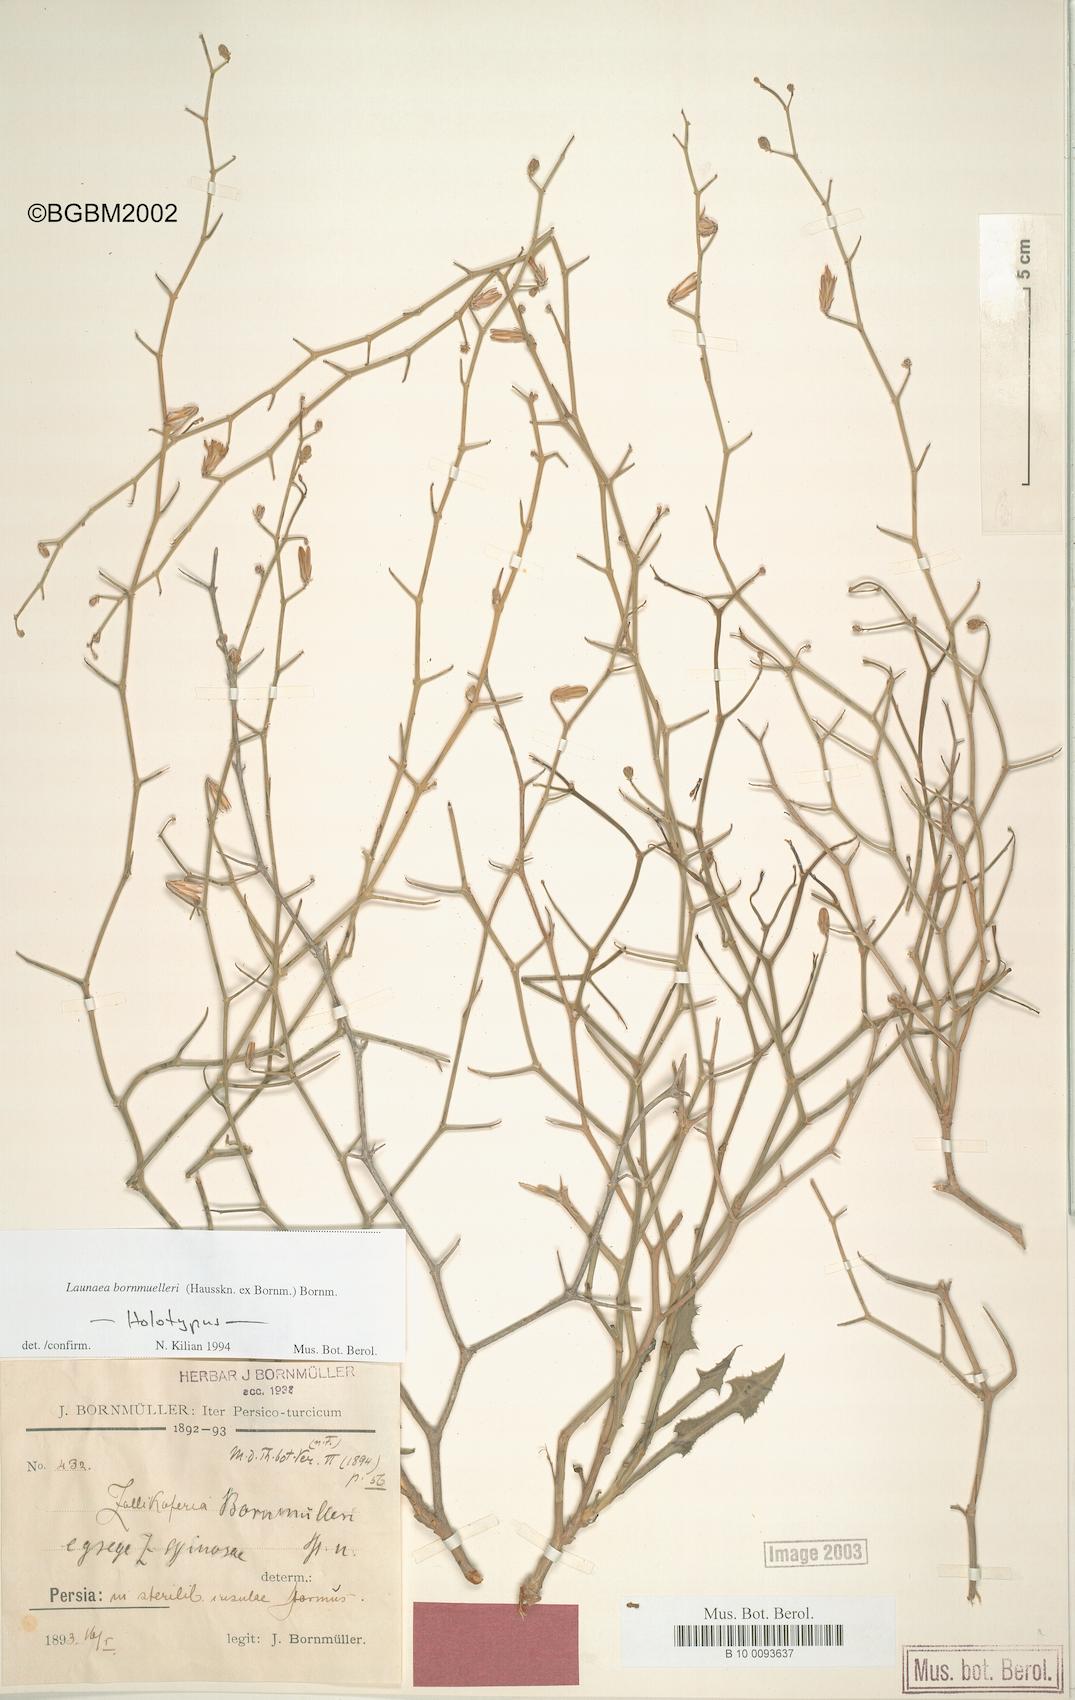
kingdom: Plantae
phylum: Tracheophyta
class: Magnoliopsida
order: Asterales
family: Asteraceae
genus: Launaea
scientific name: Launaea bornmuelleri
